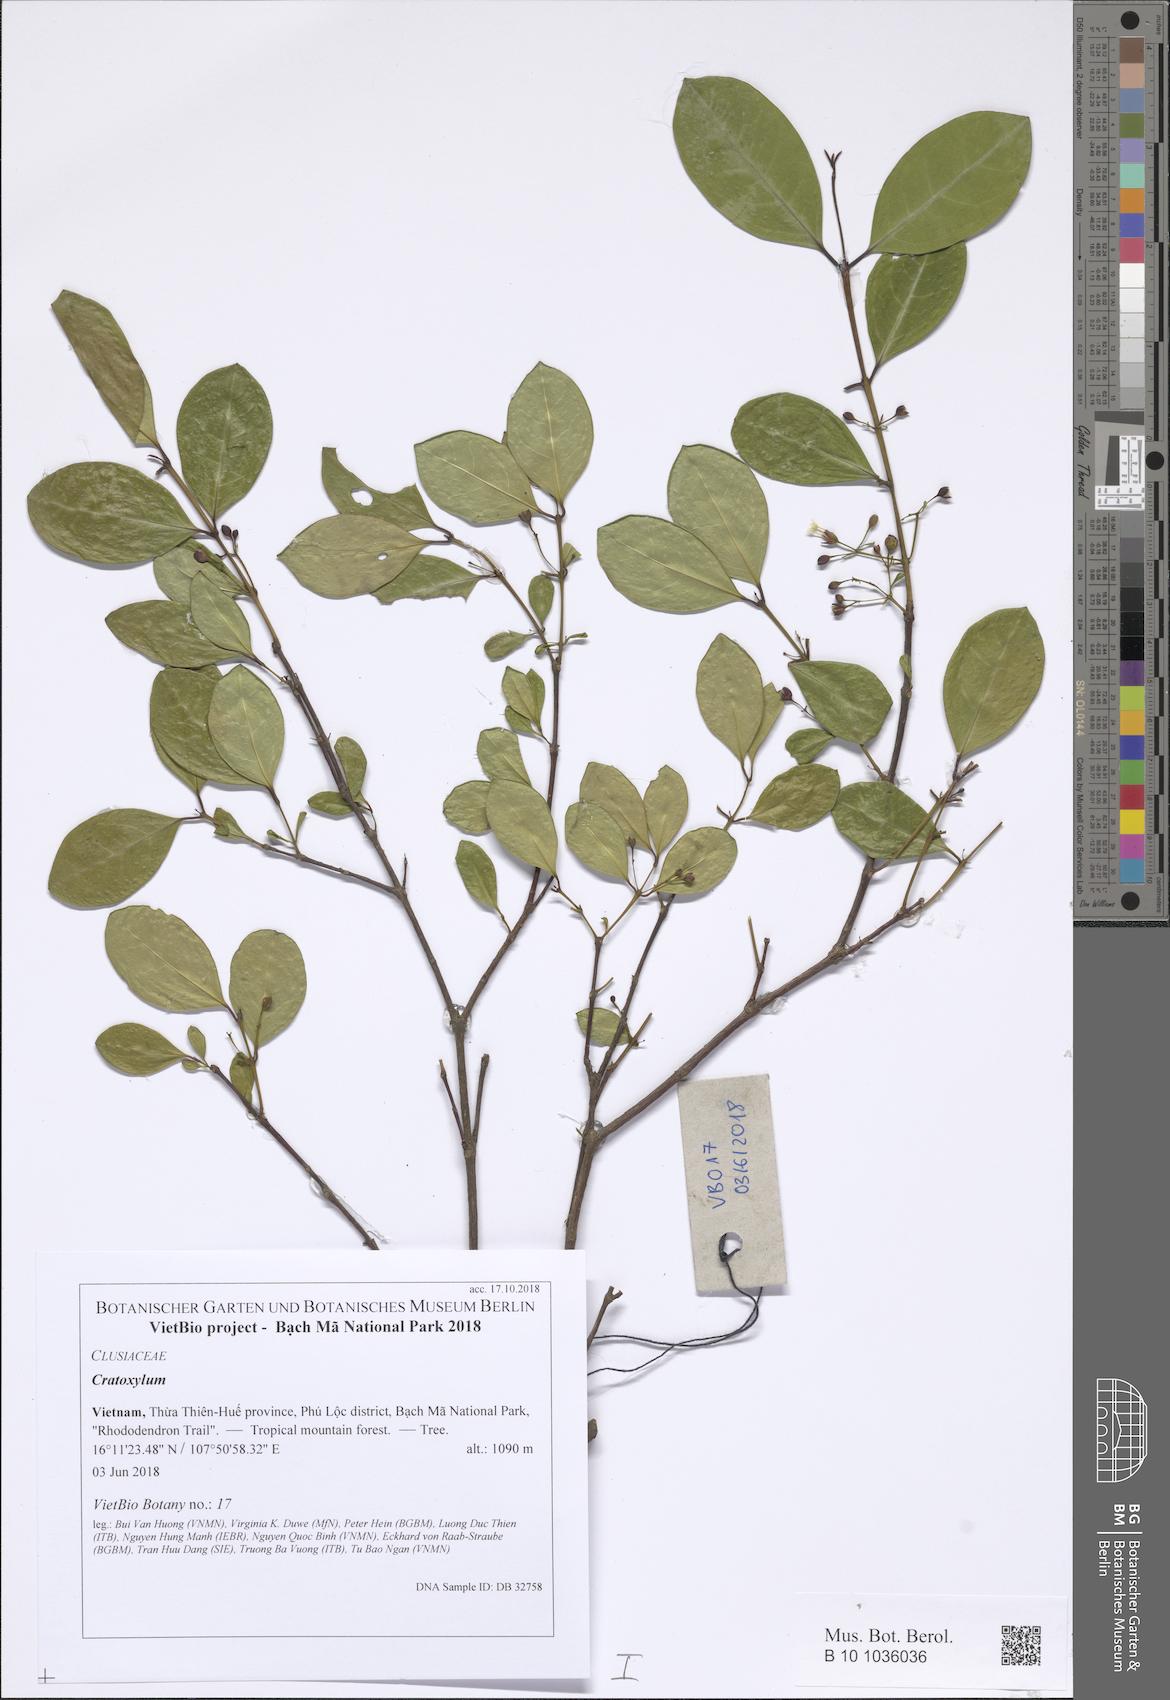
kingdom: Plantae
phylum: Tracheophyta
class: Magnoliopsida
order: Malpighiales
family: Hypericaceae
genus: Cratoxylum
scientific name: Cratoxylum formosum
